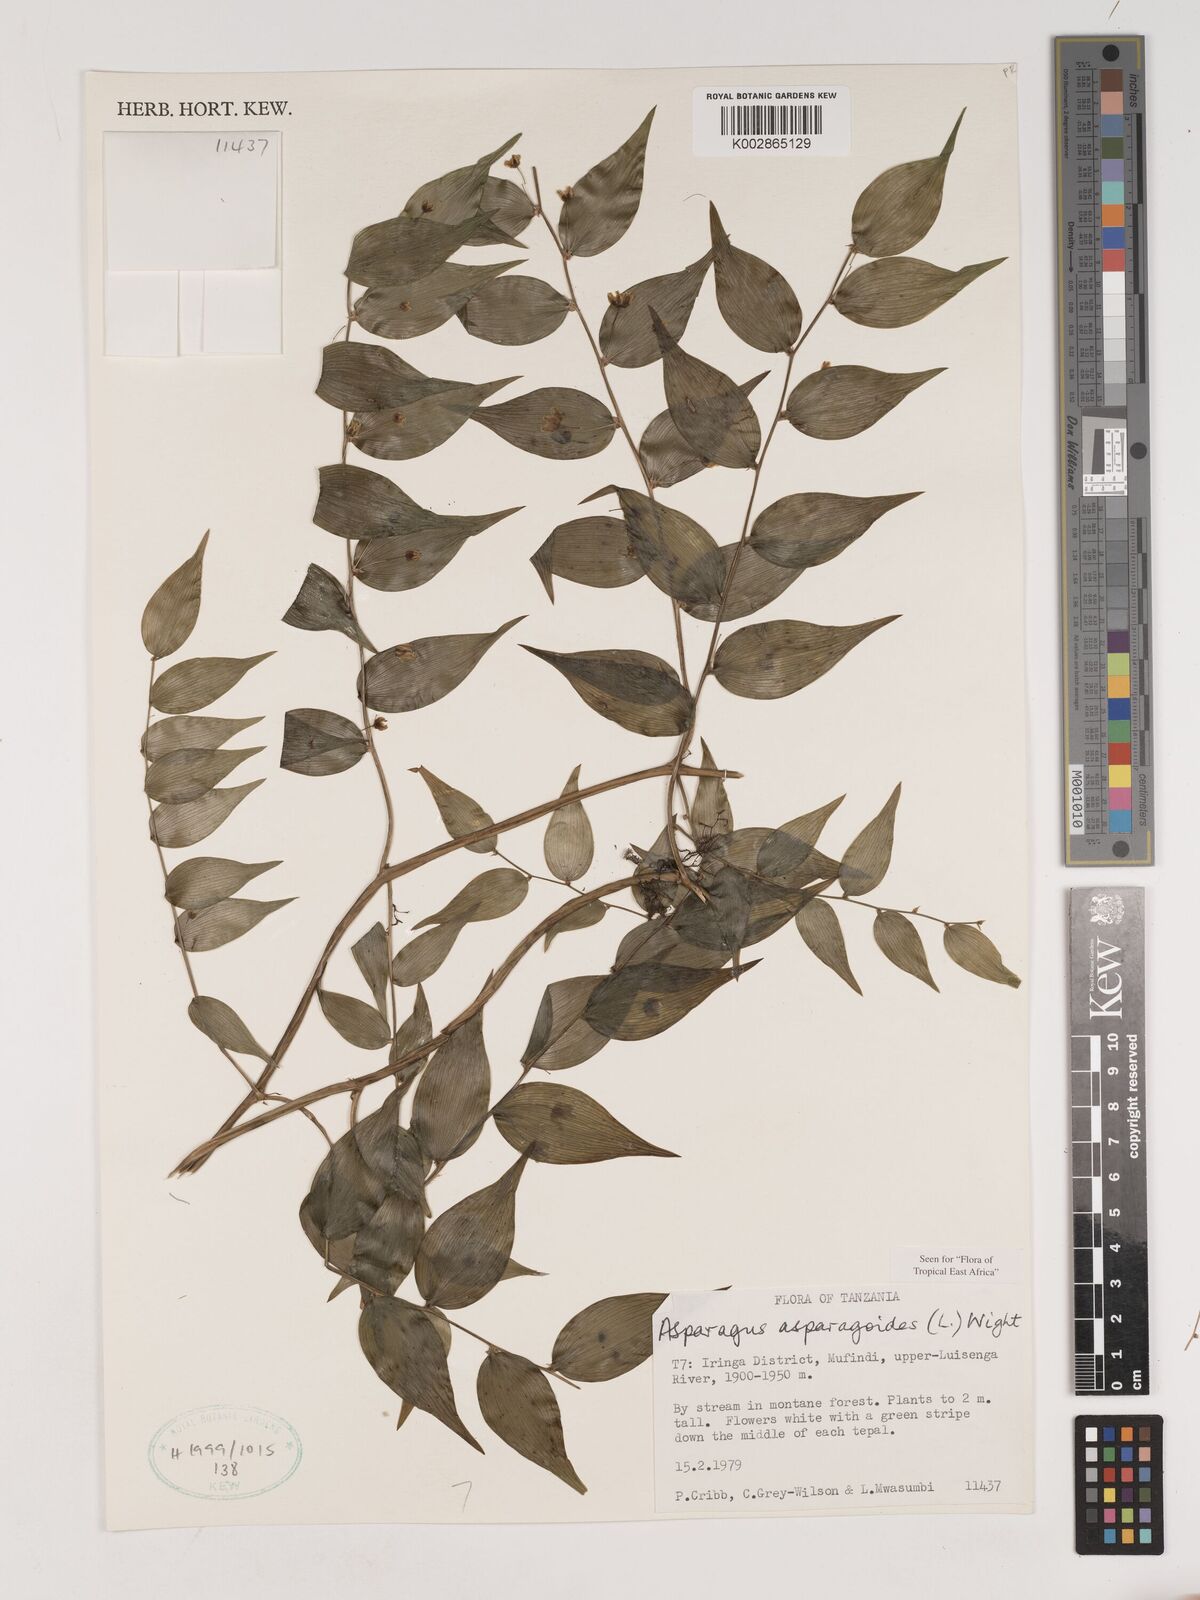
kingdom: Plantae
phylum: Tracheophyta
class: Liliopsida
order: Asparagales
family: Asparagaceae
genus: Asparagus
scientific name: Asparagus asparagoides
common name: African asparagus fern
